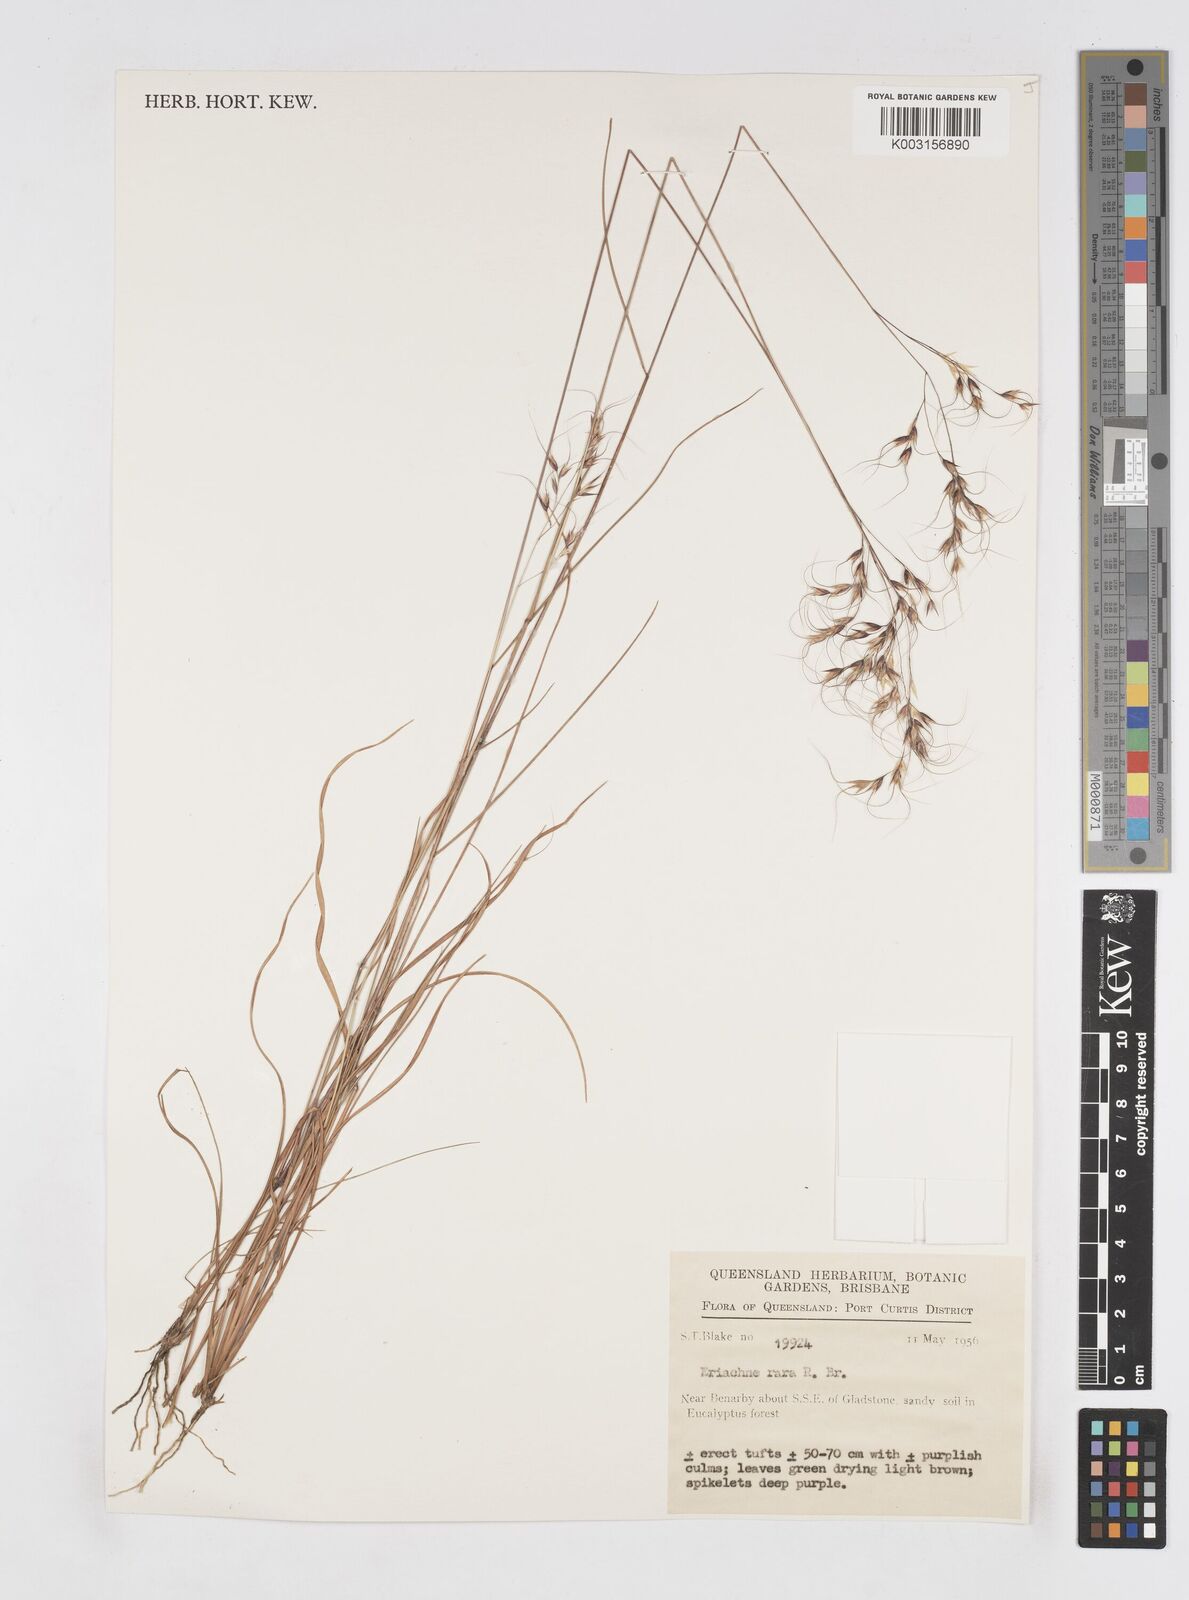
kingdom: Plantae
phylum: Tracheophyta
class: Liliopsida
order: Poales
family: Poaceae
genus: Eriachne
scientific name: Eriachne rara
